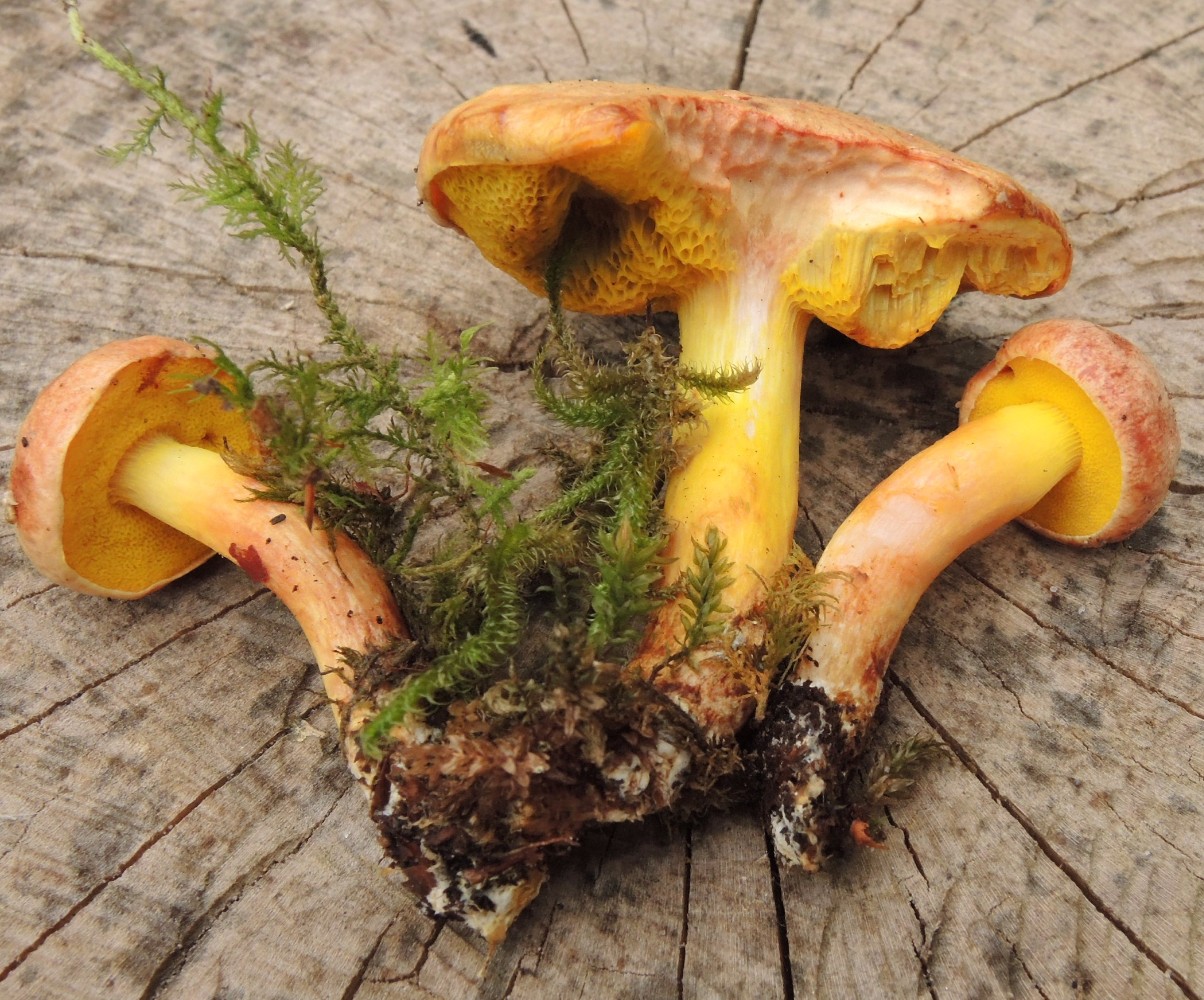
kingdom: Fungi
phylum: Basidiomycota
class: Agaricomycetes
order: Boletales
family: Boletaceae
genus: Aureoboletus
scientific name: Aureoboletus gentilis
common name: guldrørhat
